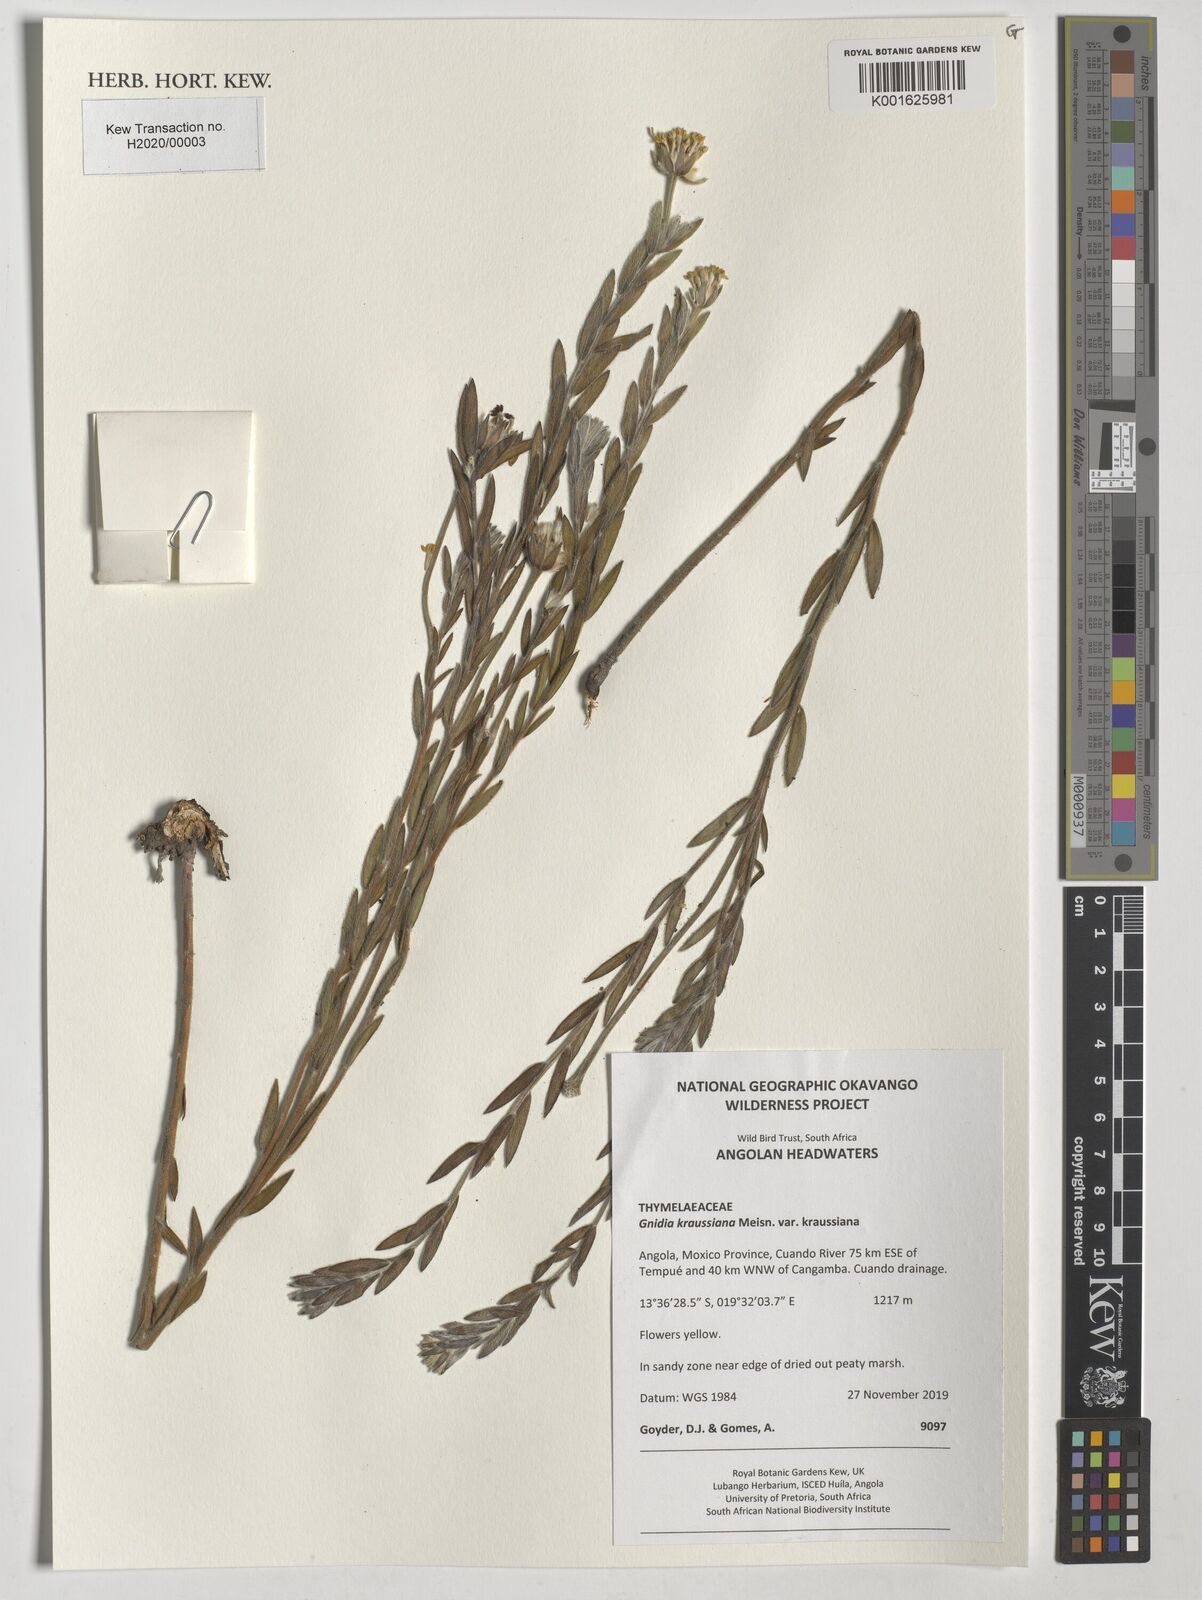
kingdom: Plantae
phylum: Tracheophyta
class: Magnoliopsida
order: Malvales
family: Thymelaeaceae
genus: Gnidia
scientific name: Gnidia kraussiana
